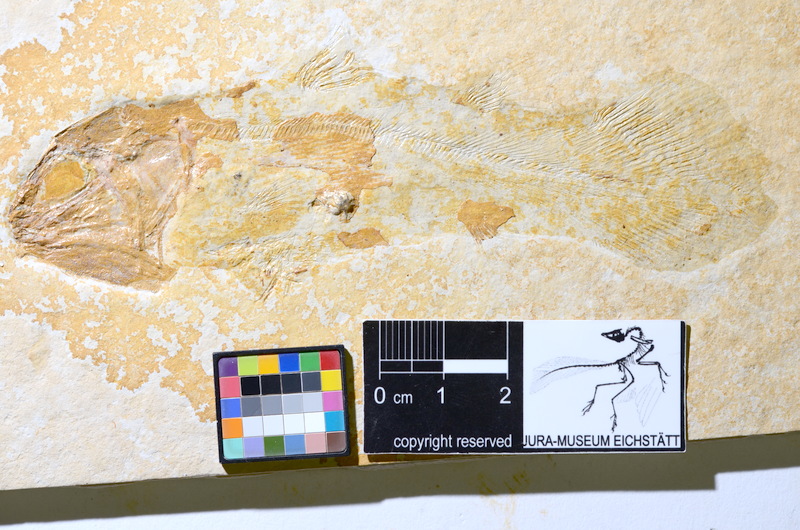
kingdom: Animalia
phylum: Chordata
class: Coelacanthi
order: Coelacanthiformes
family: Laugiidae
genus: Coccoderma
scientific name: Coccoderma gigas
